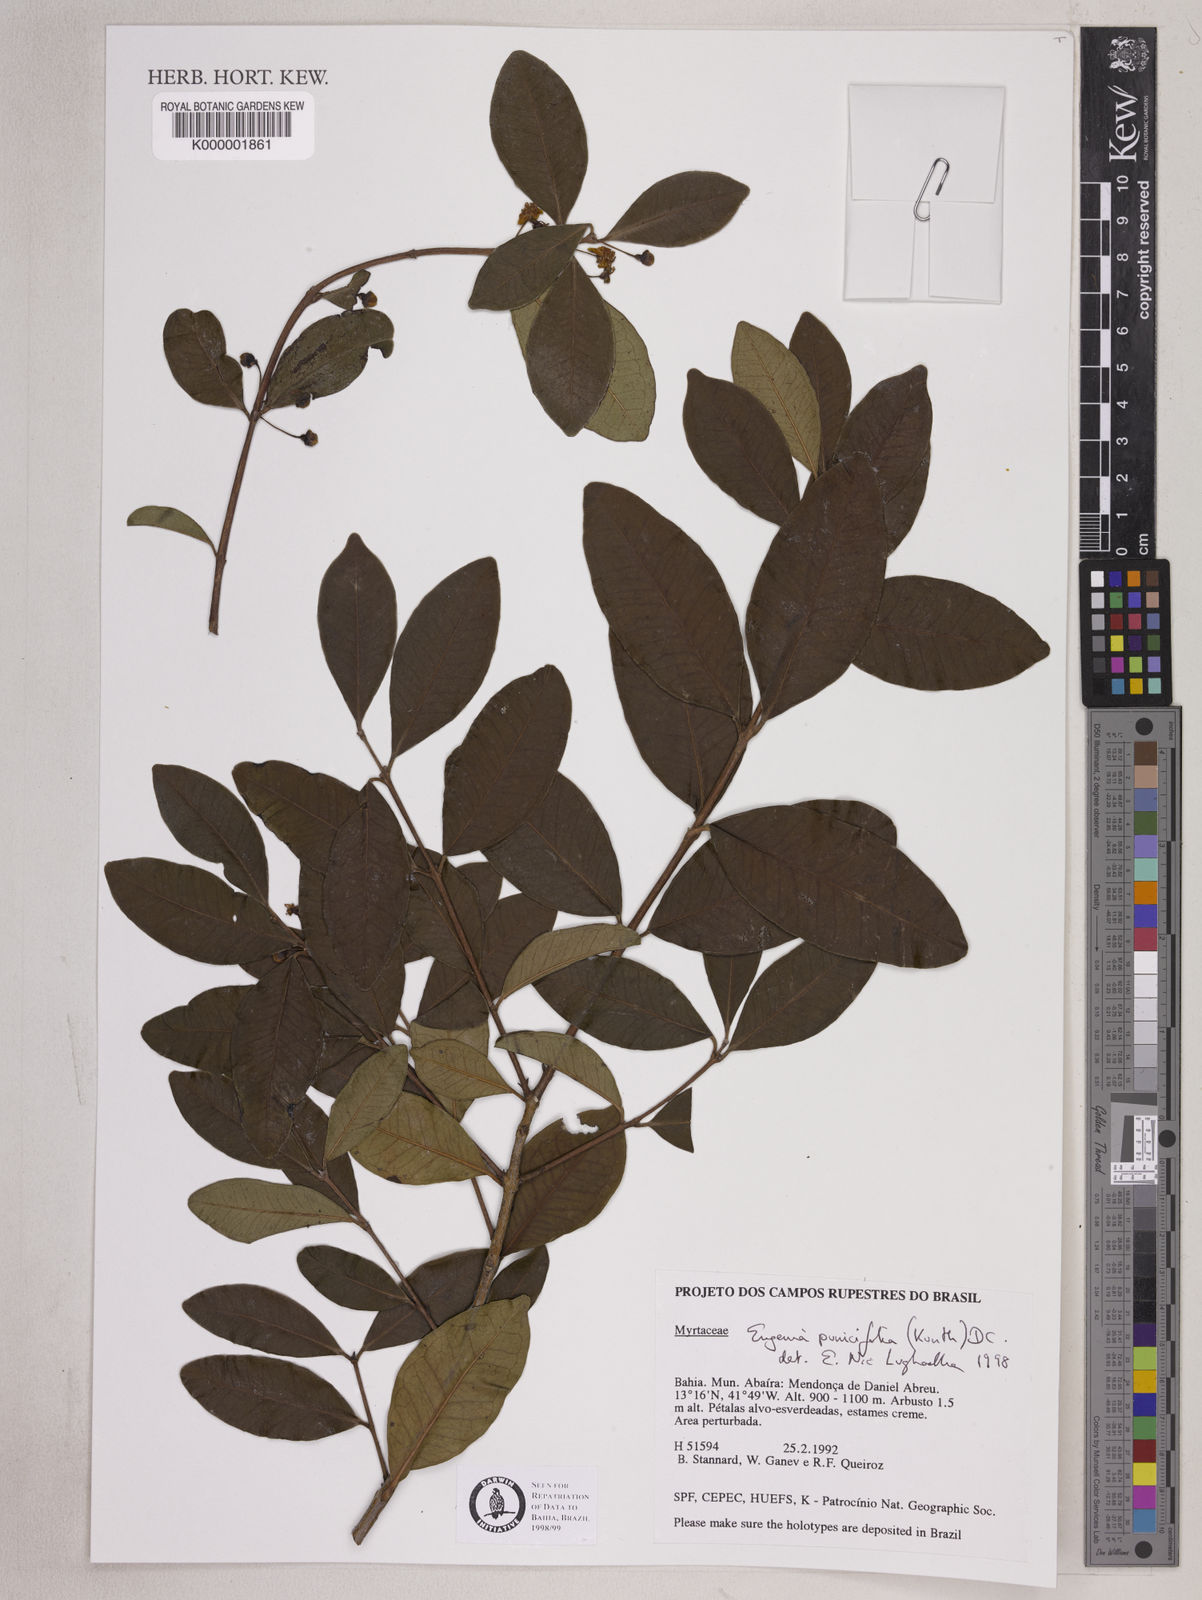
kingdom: Plantae
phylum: Tracheophyta
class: Magnoliopsida
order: Myrtales
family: Myrtaceae
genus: Eugenia
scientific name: Eugenia punicifolia
